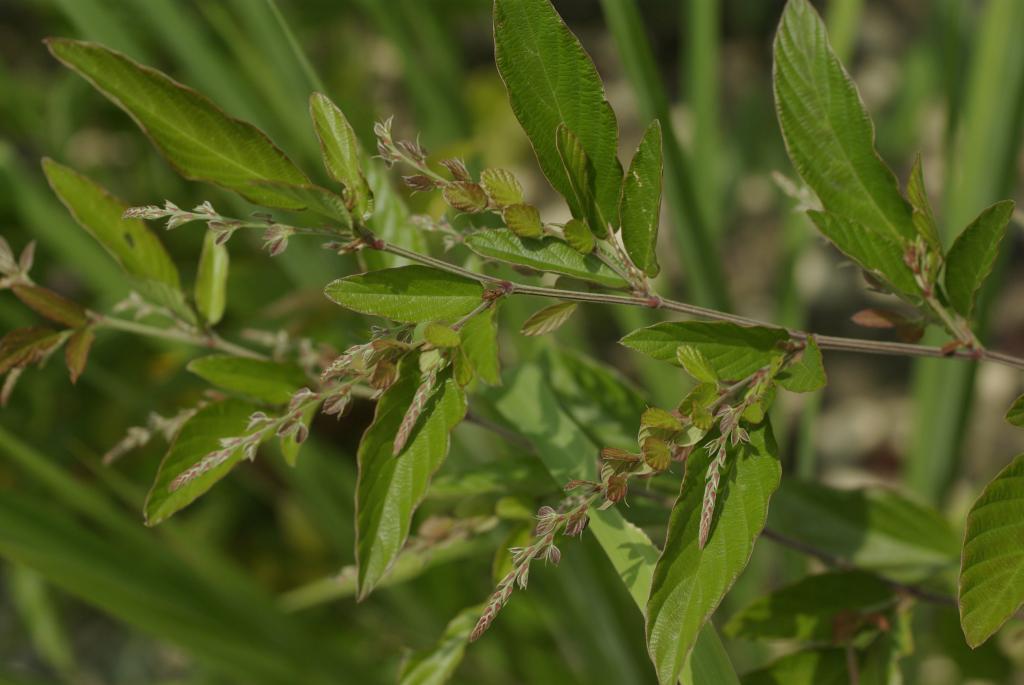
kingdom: Plantae
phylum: Tracheophyta
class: Magnoliopsida
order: Fabales
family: Fabaceae
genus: Phyllodium
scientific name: Phyllodium pulchellum
